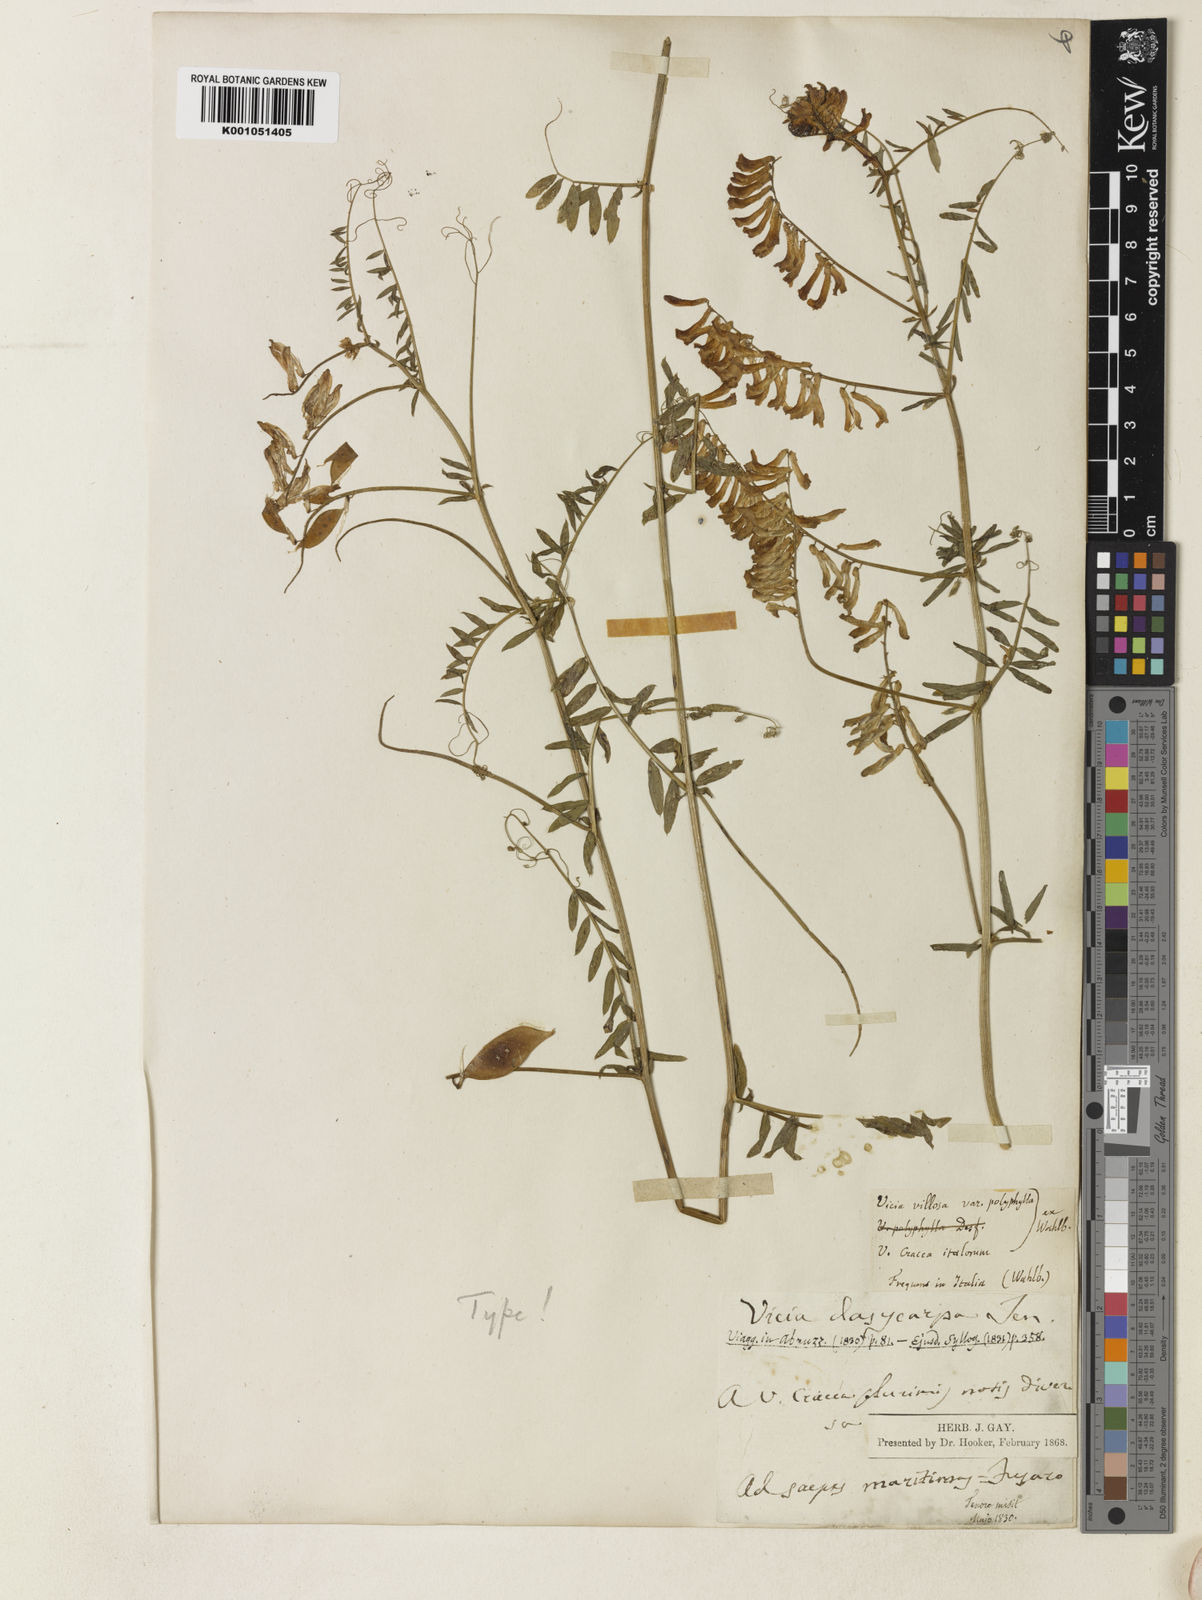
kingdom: Plantae
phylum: Tracheophyta
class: Magnoliopsida
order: Fabales
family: Fabaceae
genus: Vicia
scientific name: Vicia villosa
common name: Fodder vetch
